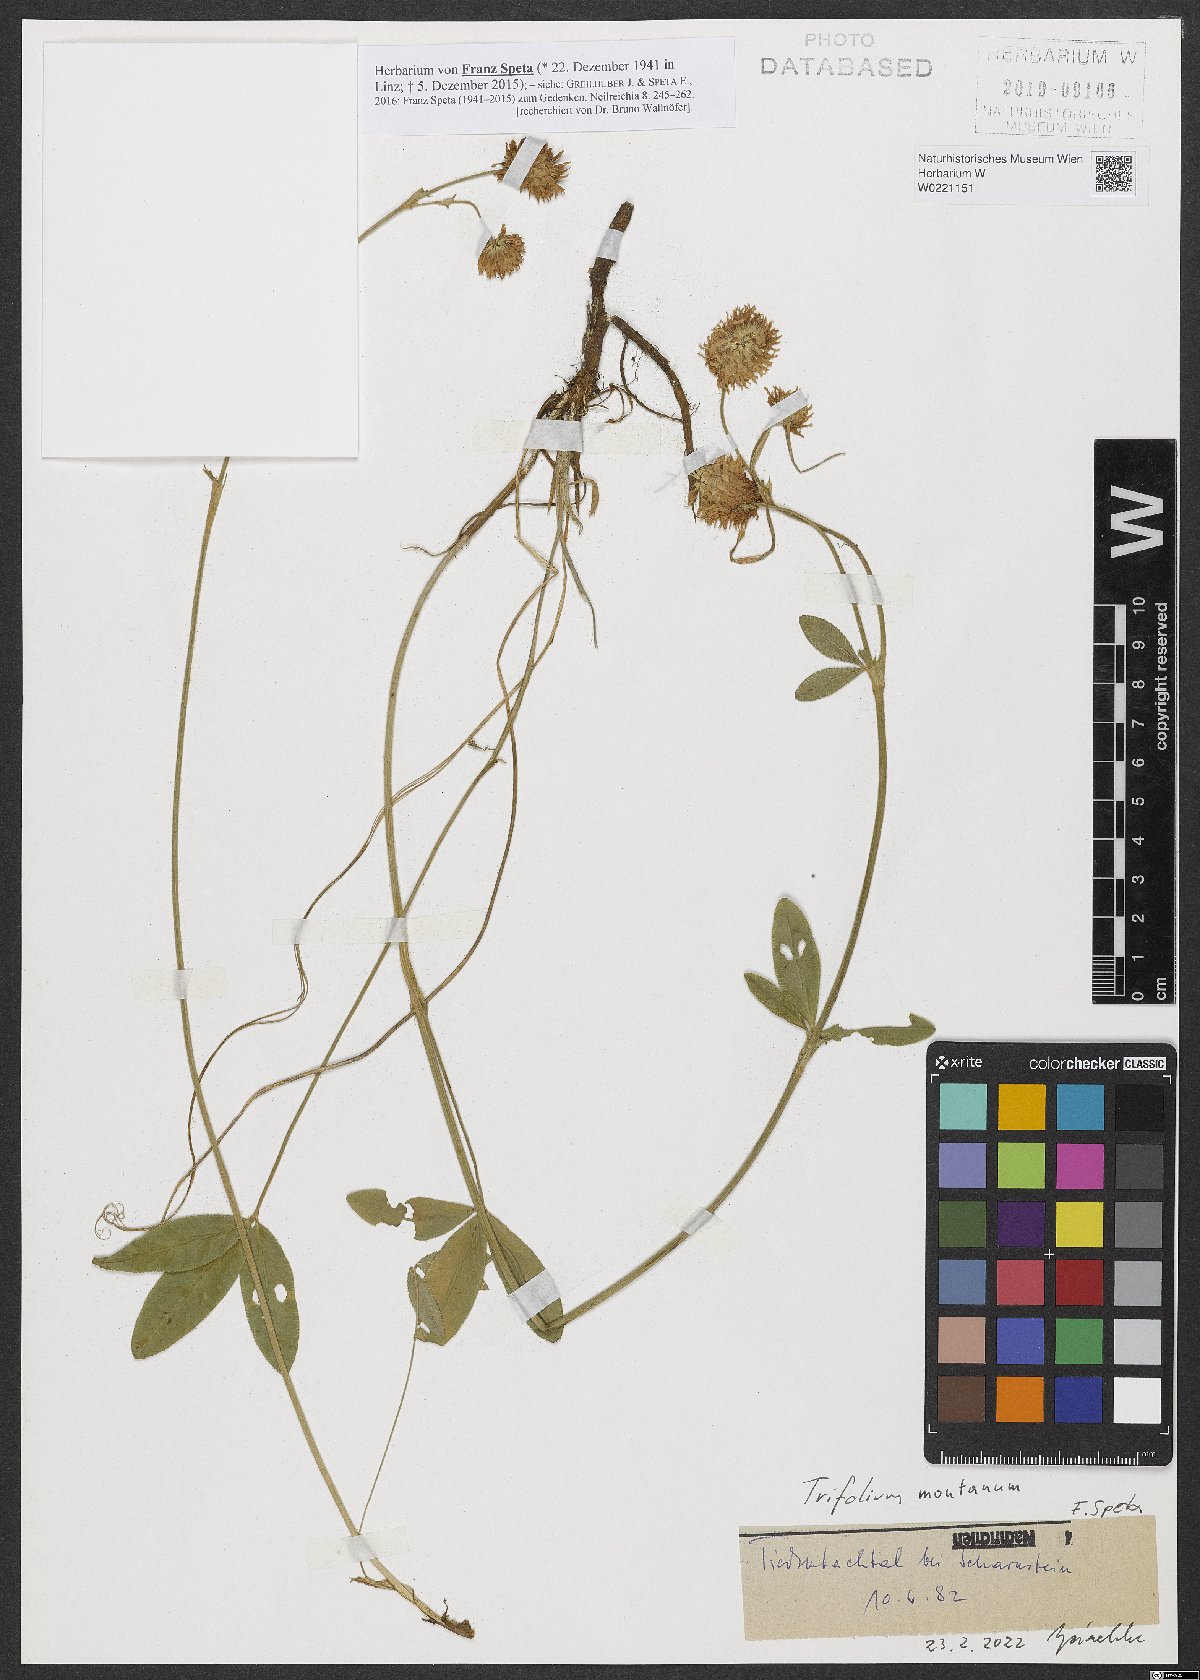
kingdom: Plantae
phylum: Tracheophyta
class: Magnoliopsida
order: Fabales
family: Fabaceae
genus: Trifolium
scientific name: Trifolium montanum
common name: Mountain clover
